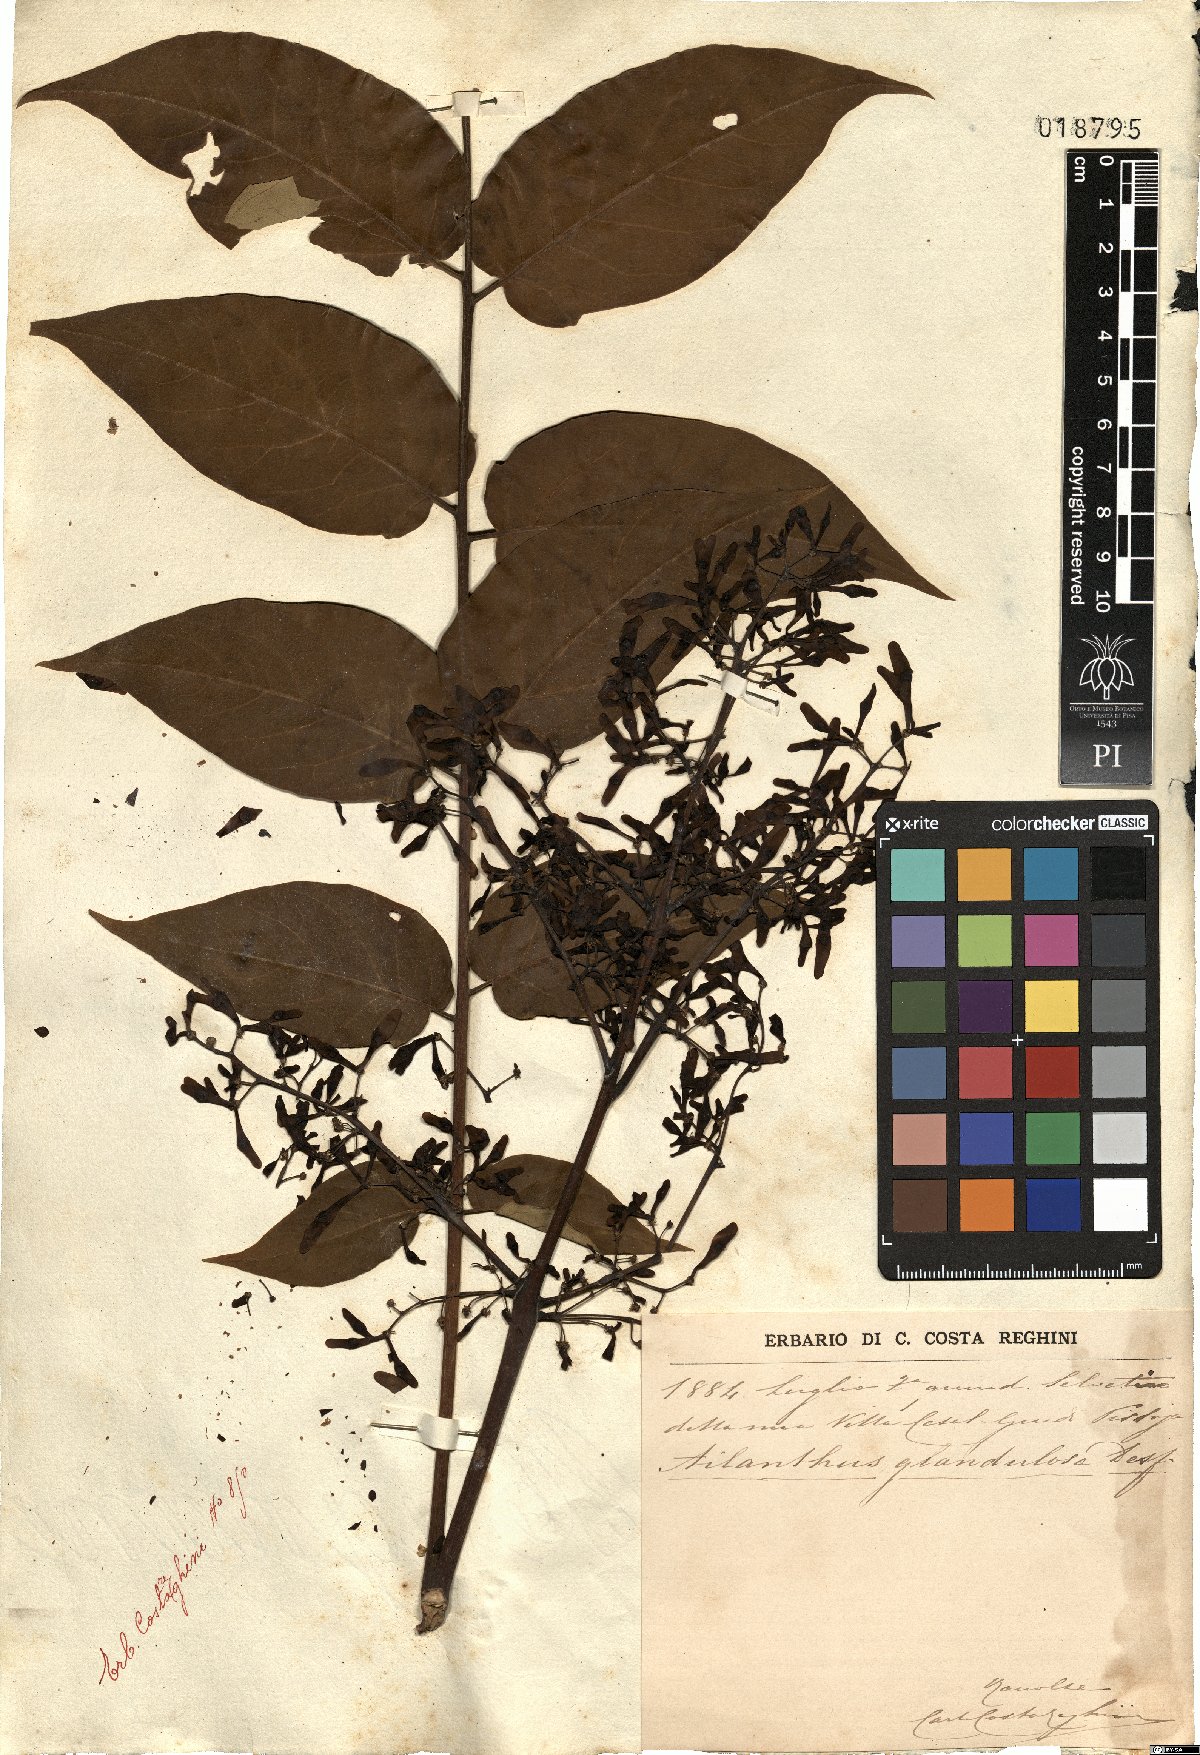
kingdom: Plantae
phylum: Tracheophyta
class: Magnoliopsida
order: Sapindales
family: Simaroubaceae
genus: Ailanthus
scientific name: Ailanthus altissima
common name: Tree-of-heaven
